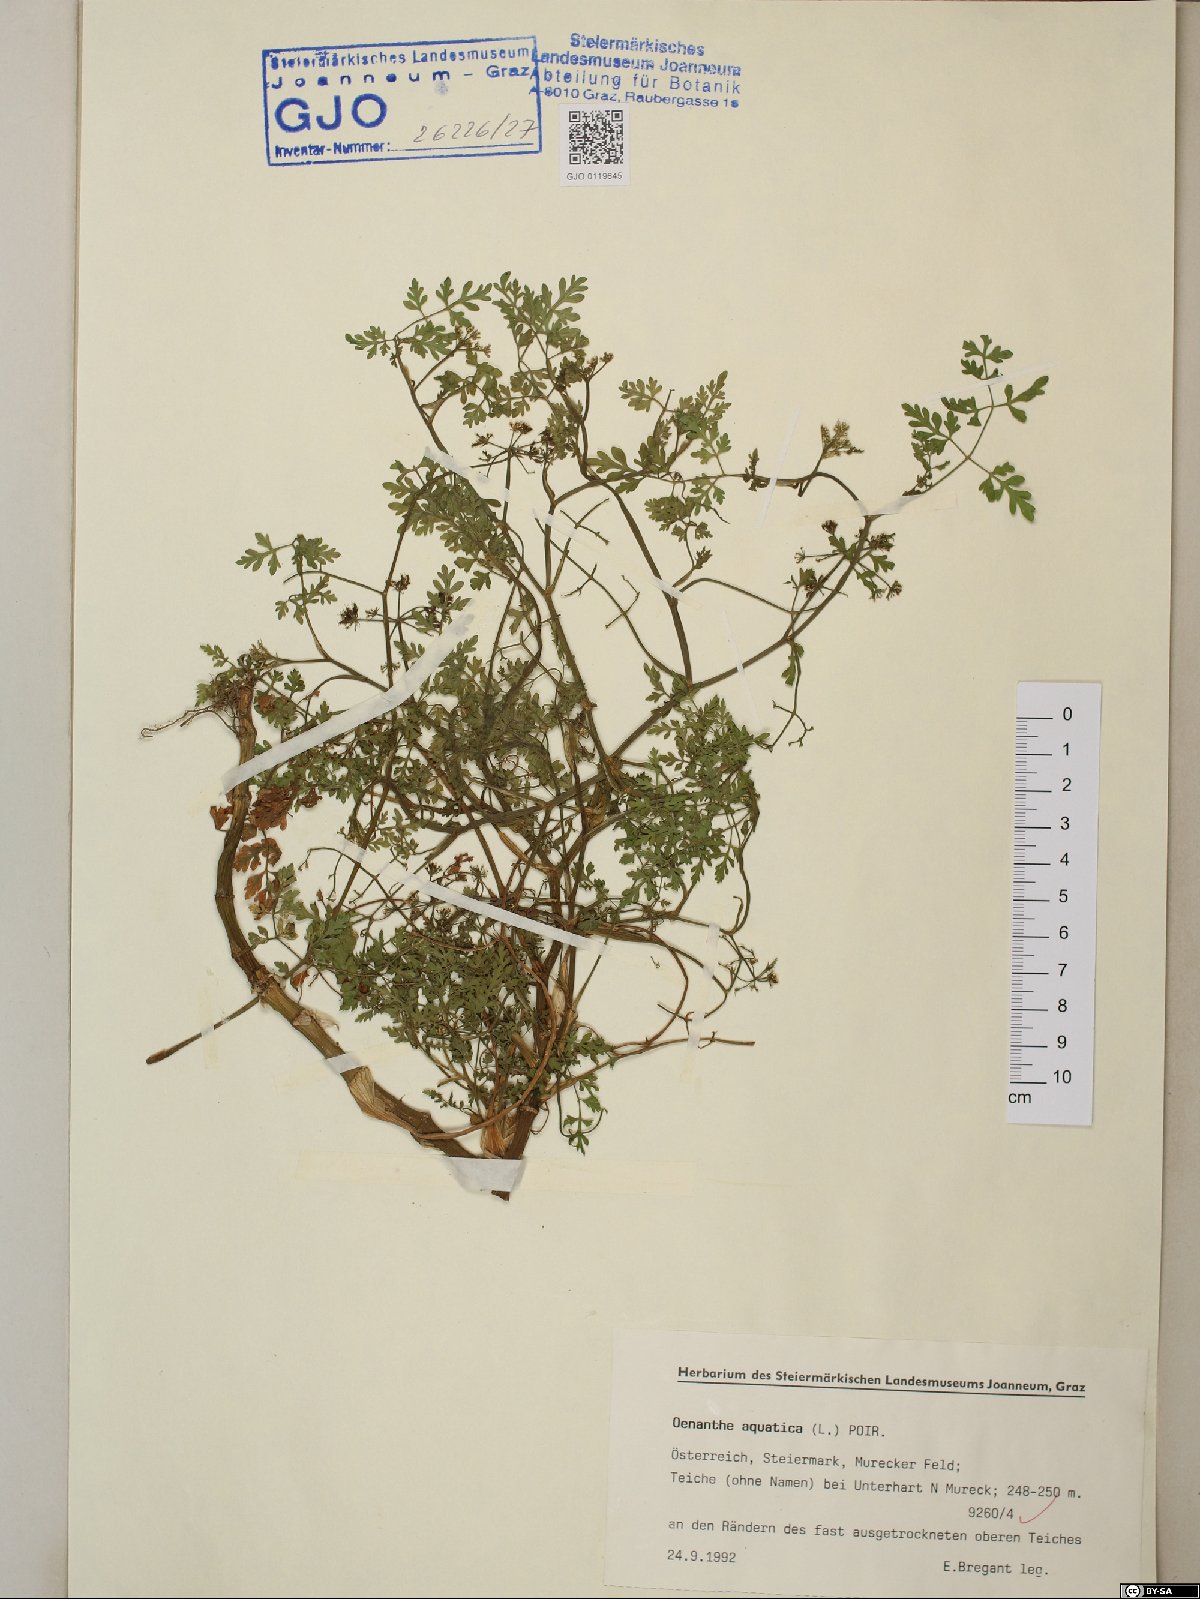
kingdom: Plantae
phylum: Tracheophyta
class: Magnoliopsida
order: Apiales
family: Apiaceae
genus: Oenanthe
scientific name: Oenanthe aquatica
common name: Fine-leaved water-dropwort
